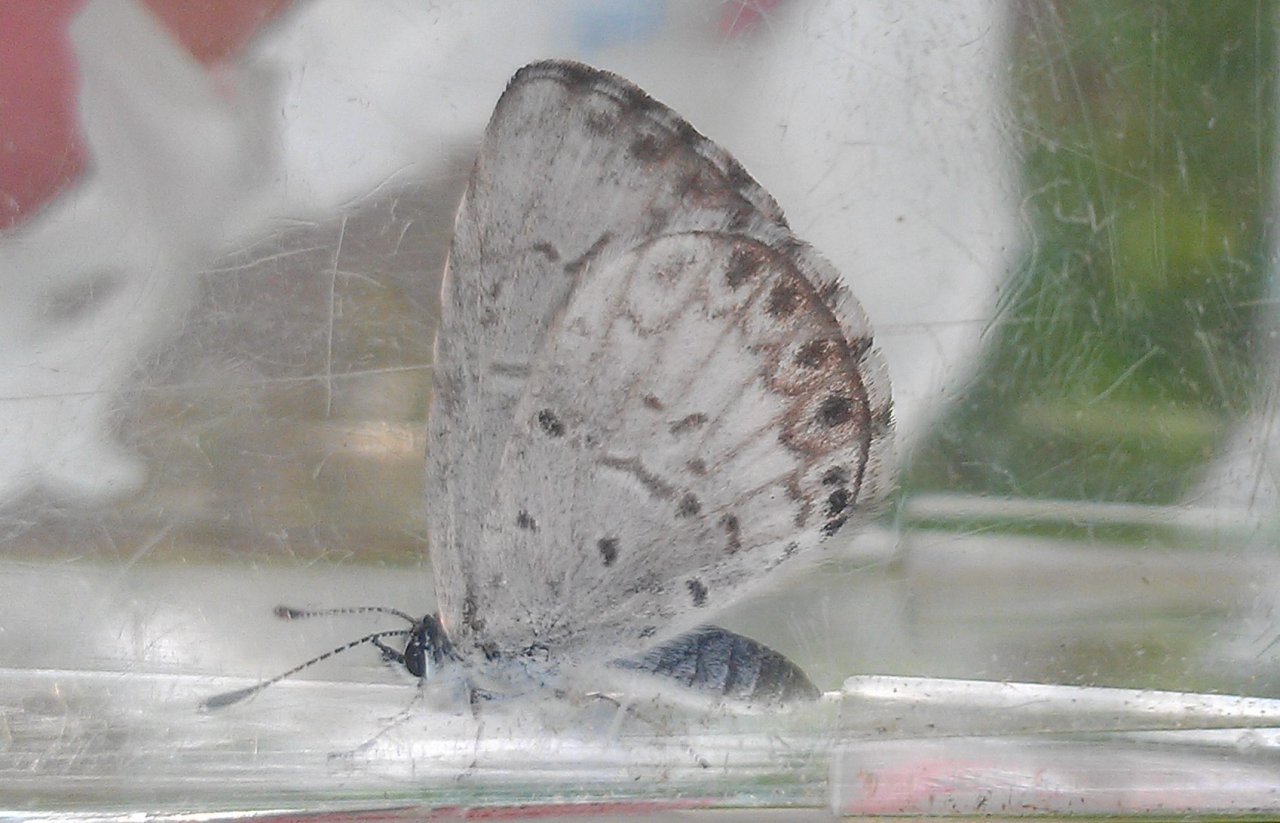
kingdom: Animalia
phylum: Arthropoda
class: Insecta
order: Lepidoptera
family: Lycaenidae
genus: Cyaniris
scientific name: Cyaniris neglecta
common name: Summer Azure
